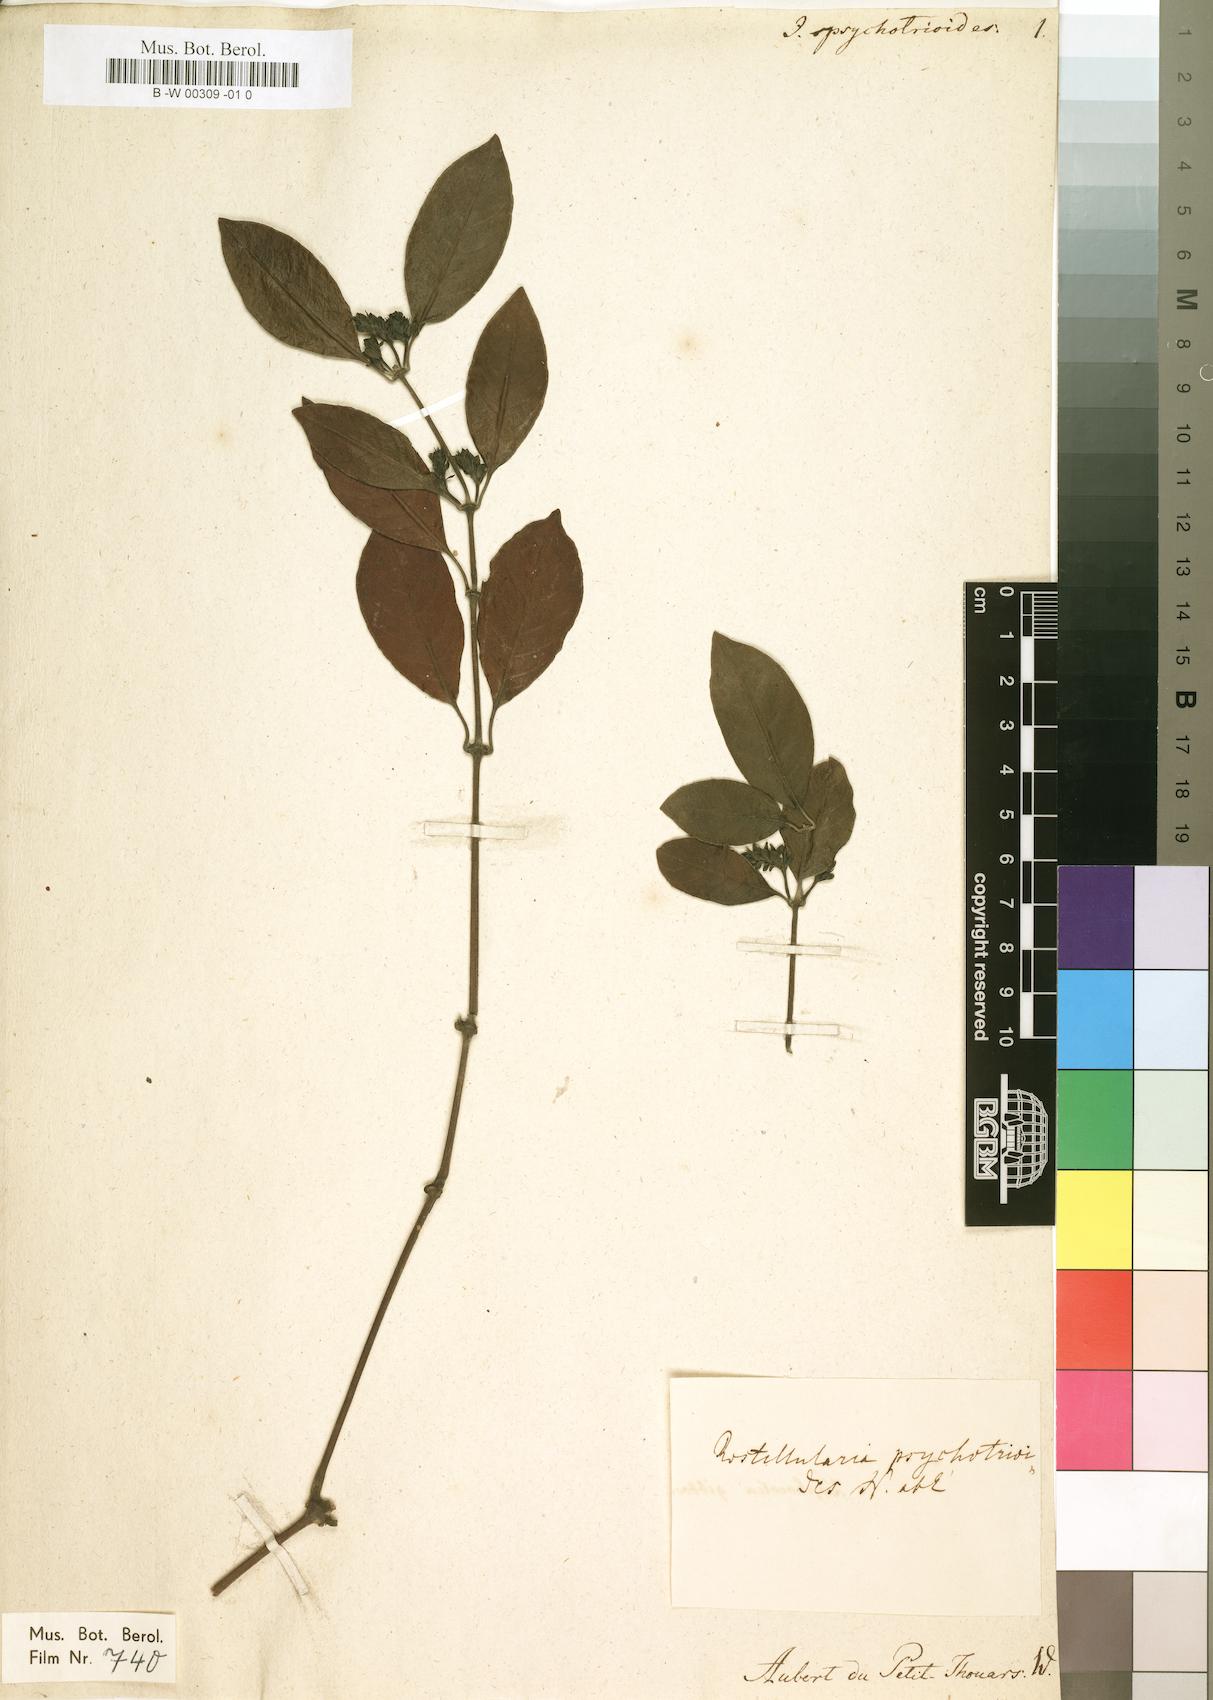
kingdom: Plantae
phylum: Tracheophyta
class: Magnoliopsida
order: Lamiales
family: Acanthaceae
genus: Rostellularia
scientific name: Rostellularia psychotrioides
